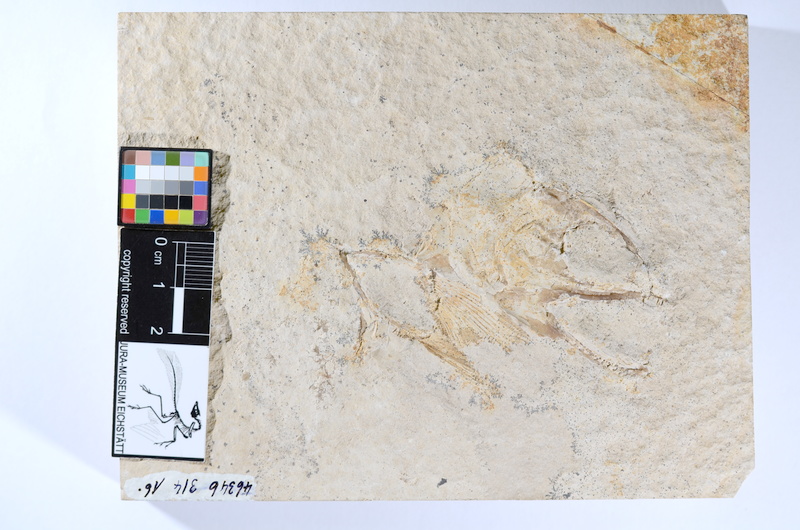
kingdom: Animalia
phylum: Chordata
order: Amiiformes
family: Caturidae
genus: Caturus
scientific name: Caturus
